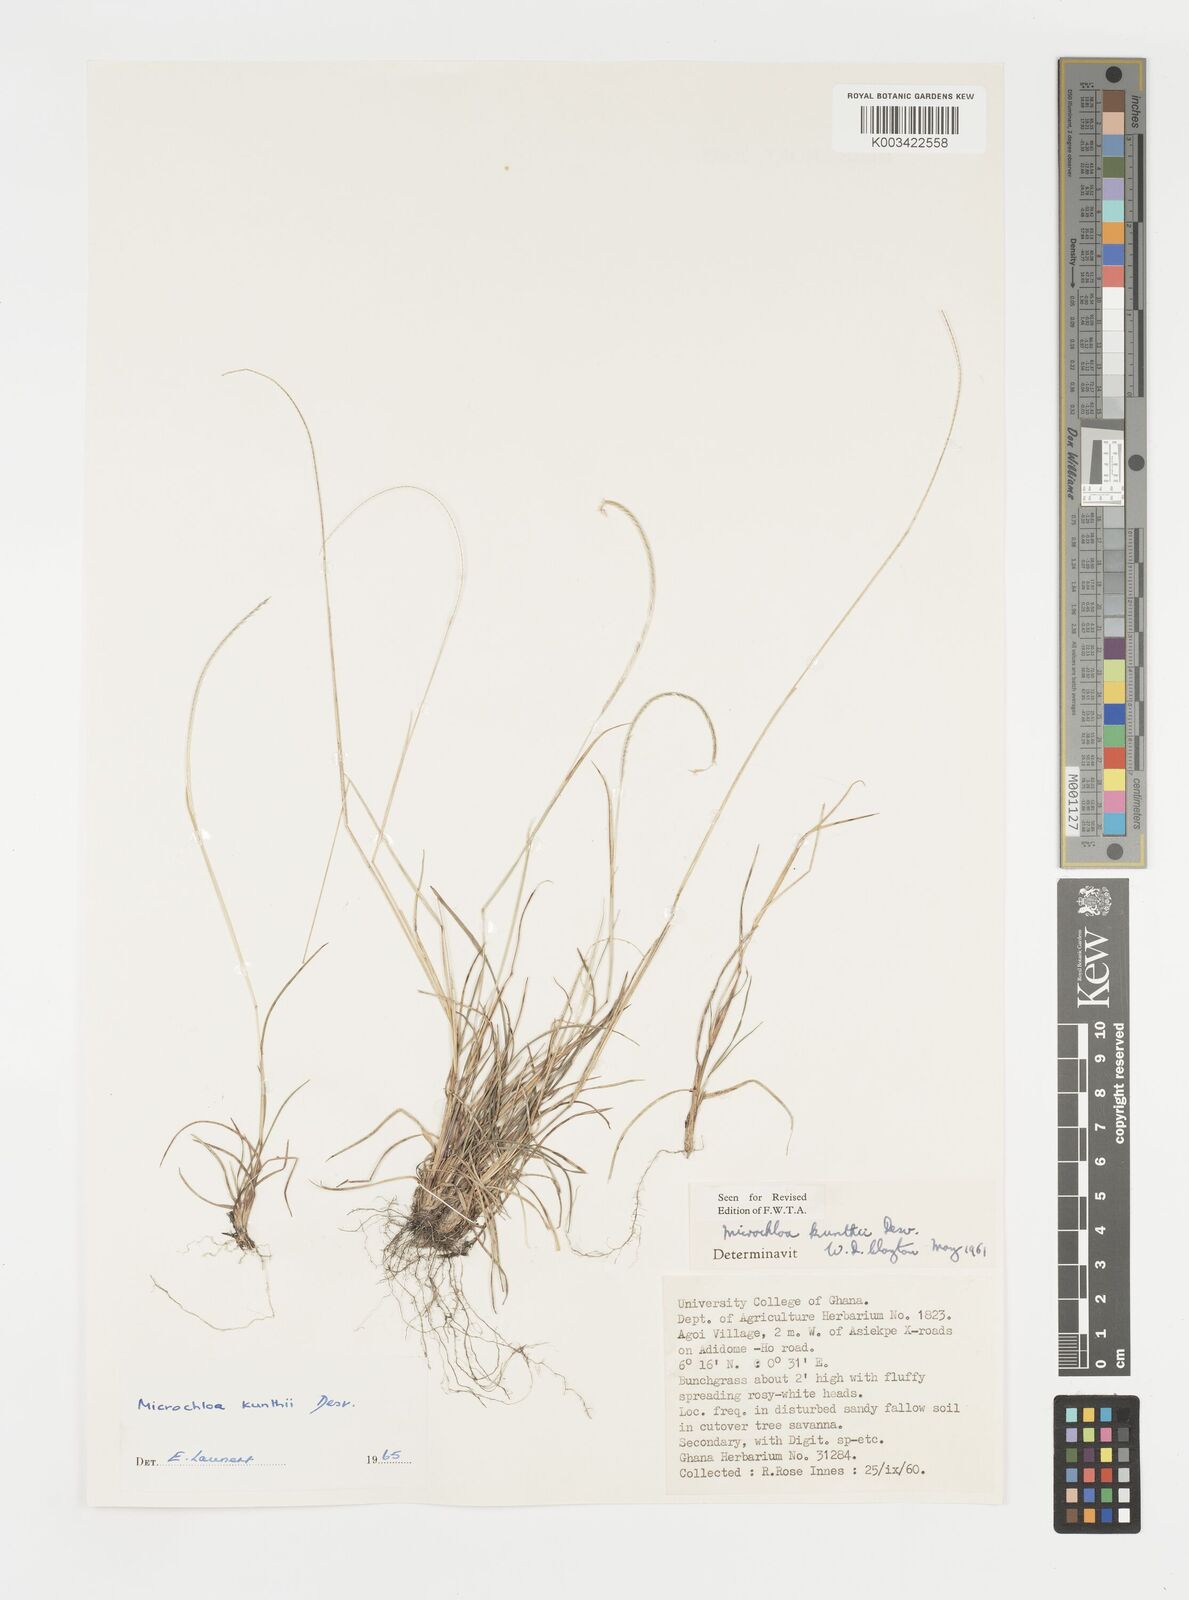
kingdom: Plantae
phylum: Tracheophyta
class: Liliopsida
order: Poales
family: Poaceae
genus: Microchloa
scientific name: Microchloa kunthii
